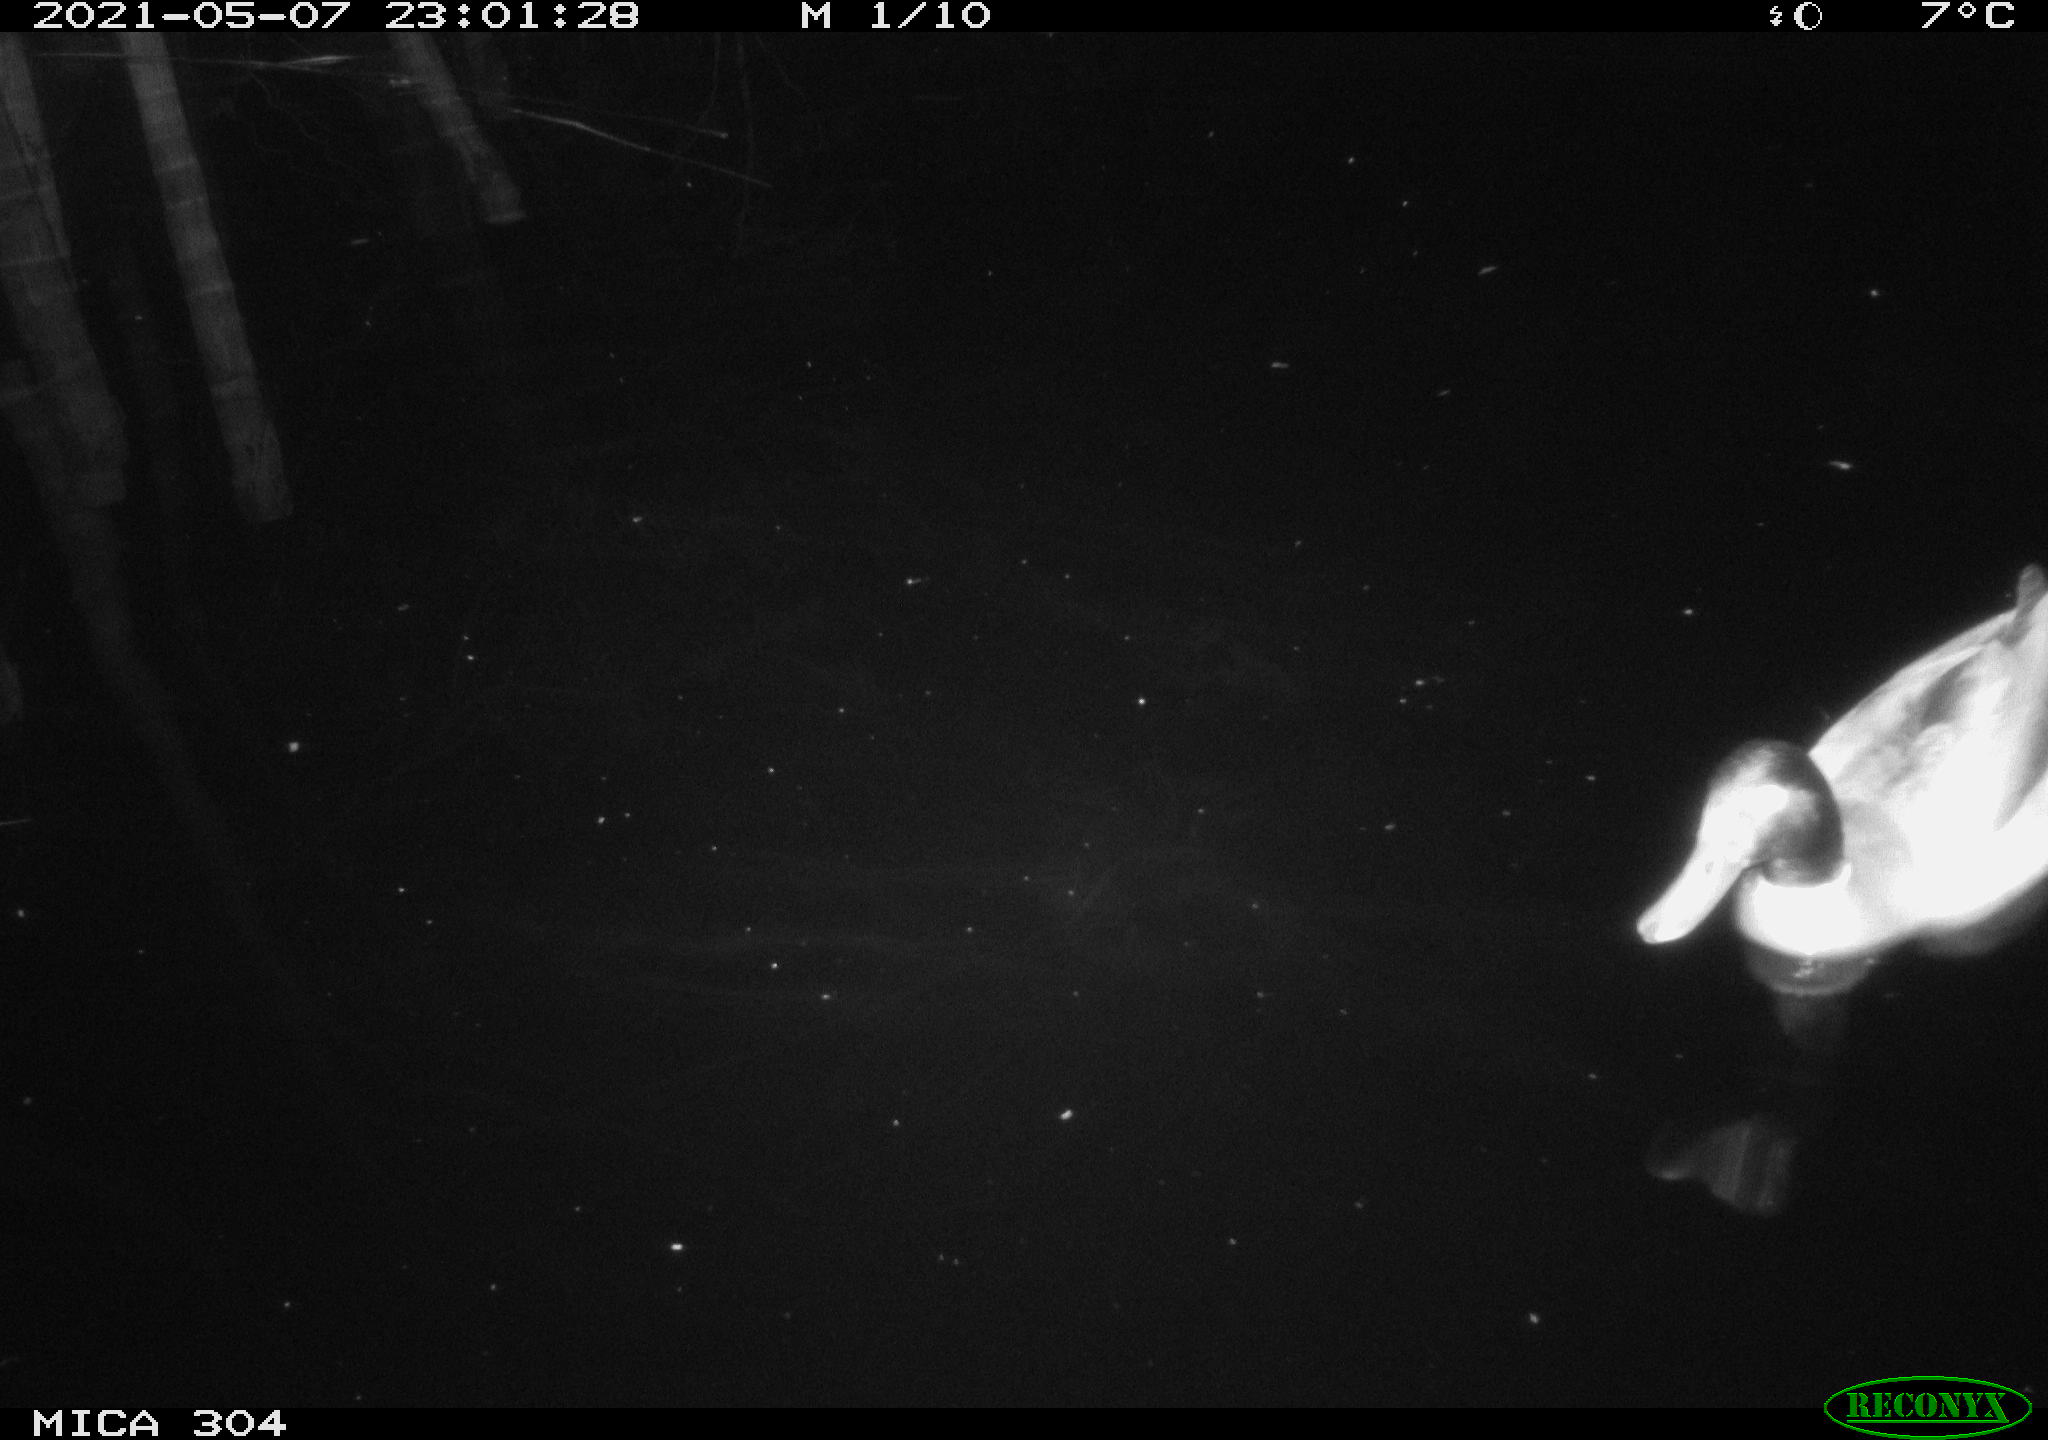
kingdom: Animalia
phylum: Chordata
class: Aves
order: Anseriformes
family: Anatidae
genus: Anas
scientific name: Anas platyrhynchos
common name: Mallard
